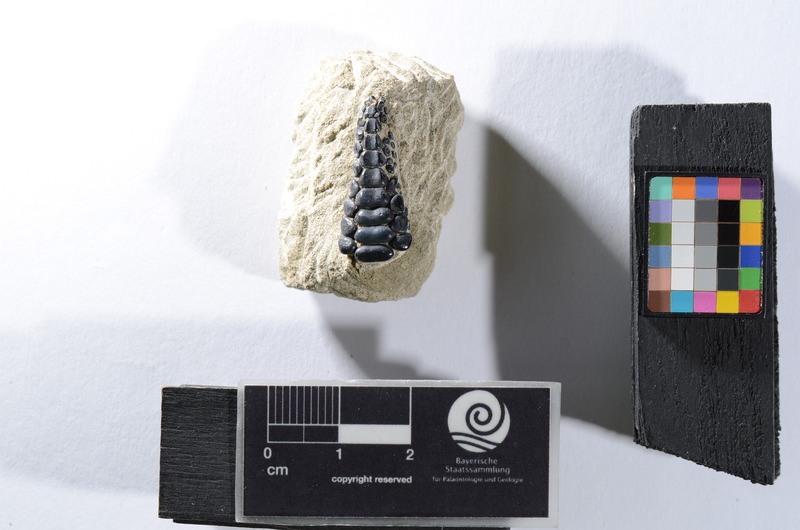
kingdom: Animalia
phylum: Chordata
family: Pycnodontidae
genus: Anomoeodus
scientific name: Anomoeodus
